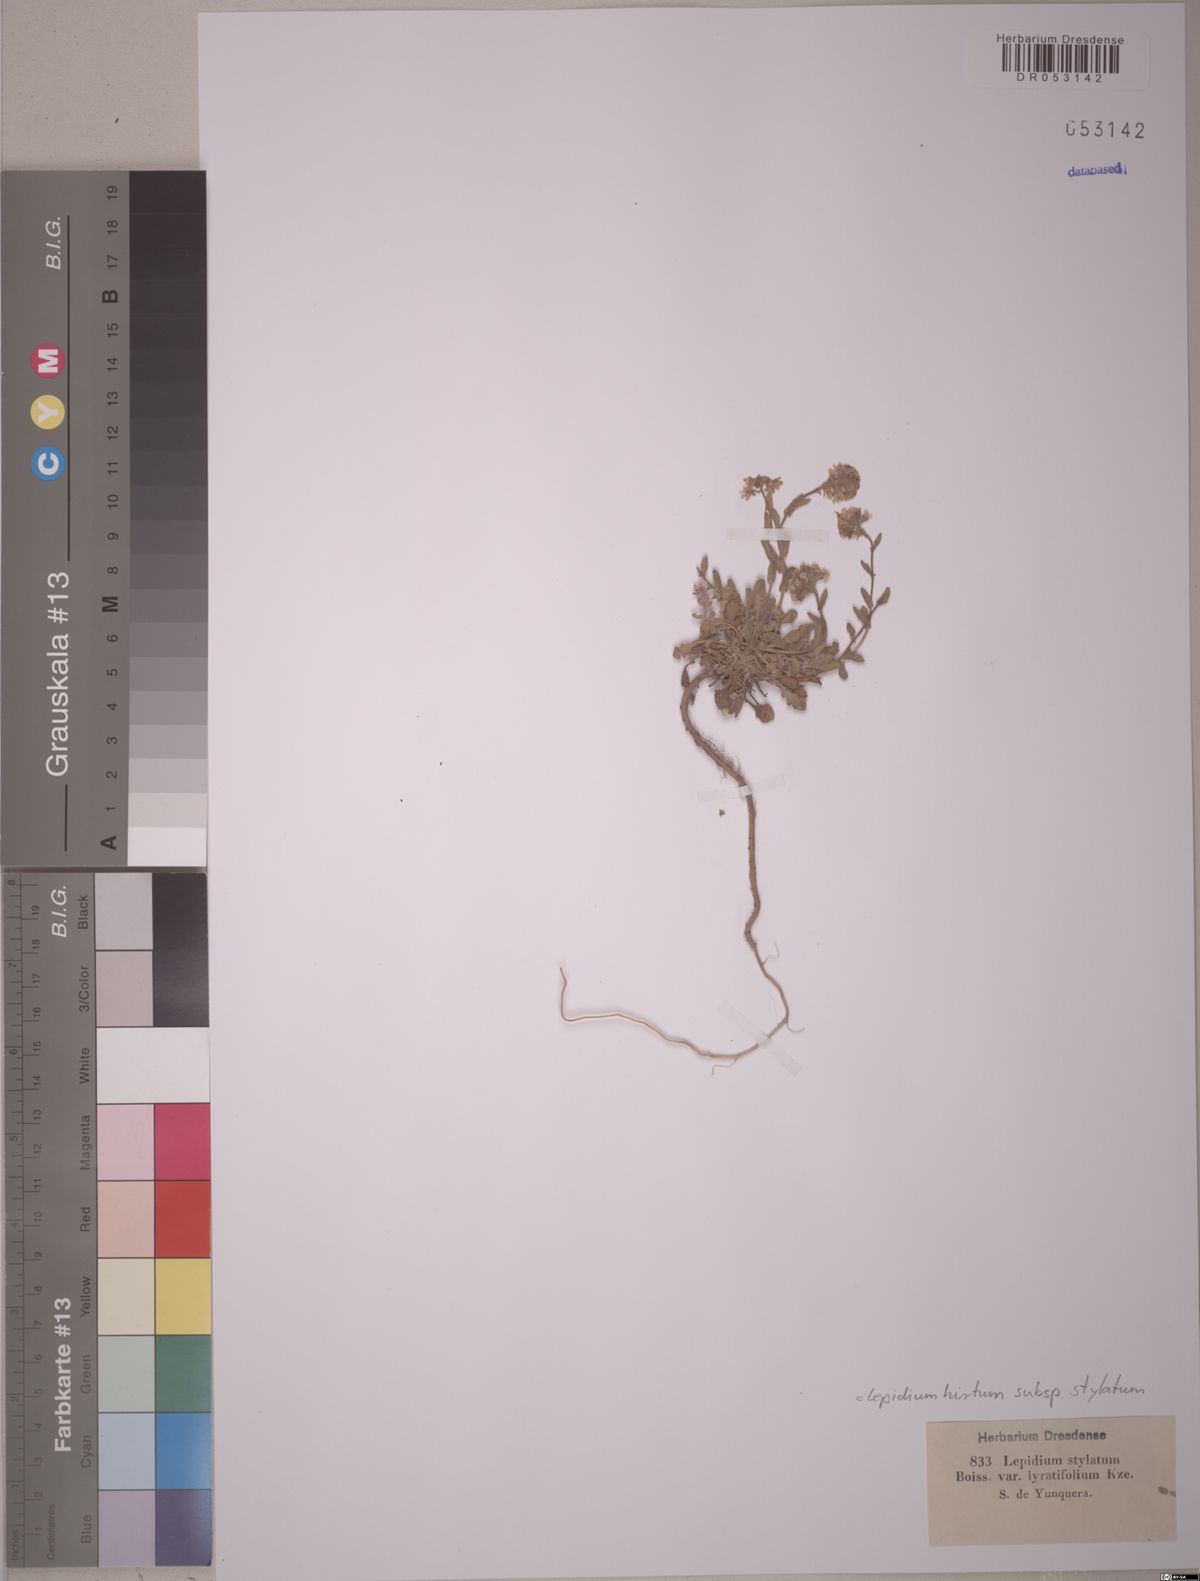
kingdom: Plantae
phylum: Tracheophyta
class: Magnoliopsida
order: Brassicales
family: Brassicaceae
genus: Lepidium
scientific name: Lepidium hirtum
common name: Mediterranean pepperweed
